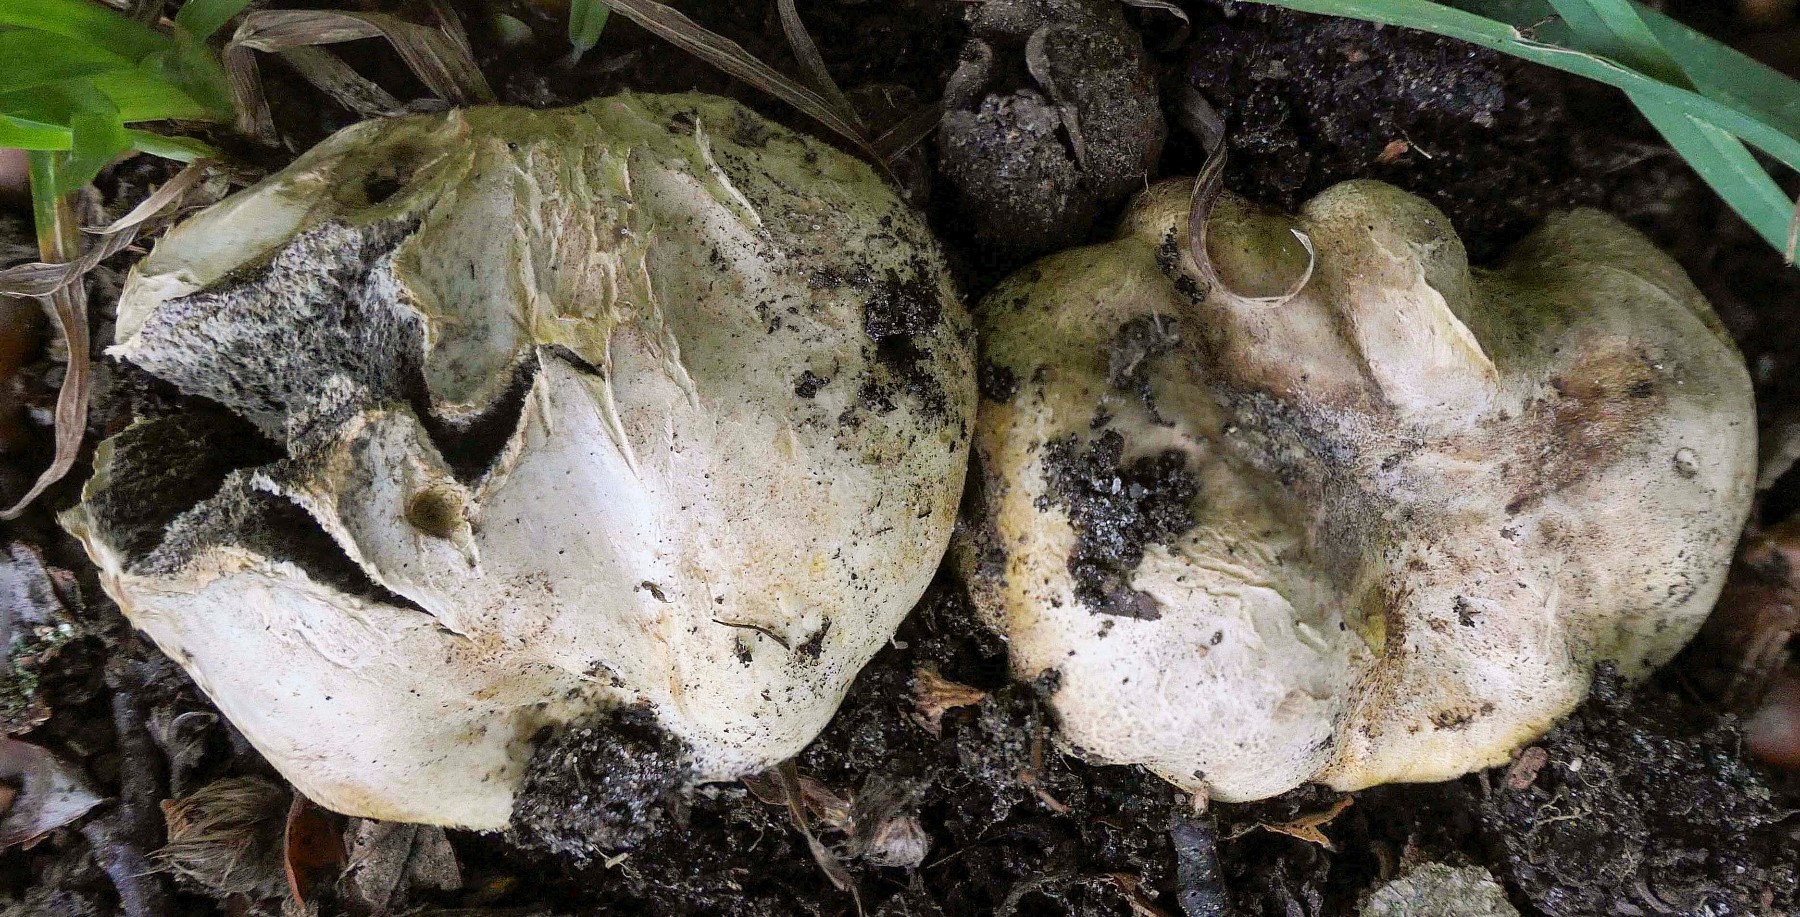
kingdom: Fungi
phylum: Basidiomycota
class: Agaricomycetes
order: Boletales
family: Sclerodermataceae
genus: Scleroderma
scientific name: Scleroderma bovista
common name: bovist-bruskbold
